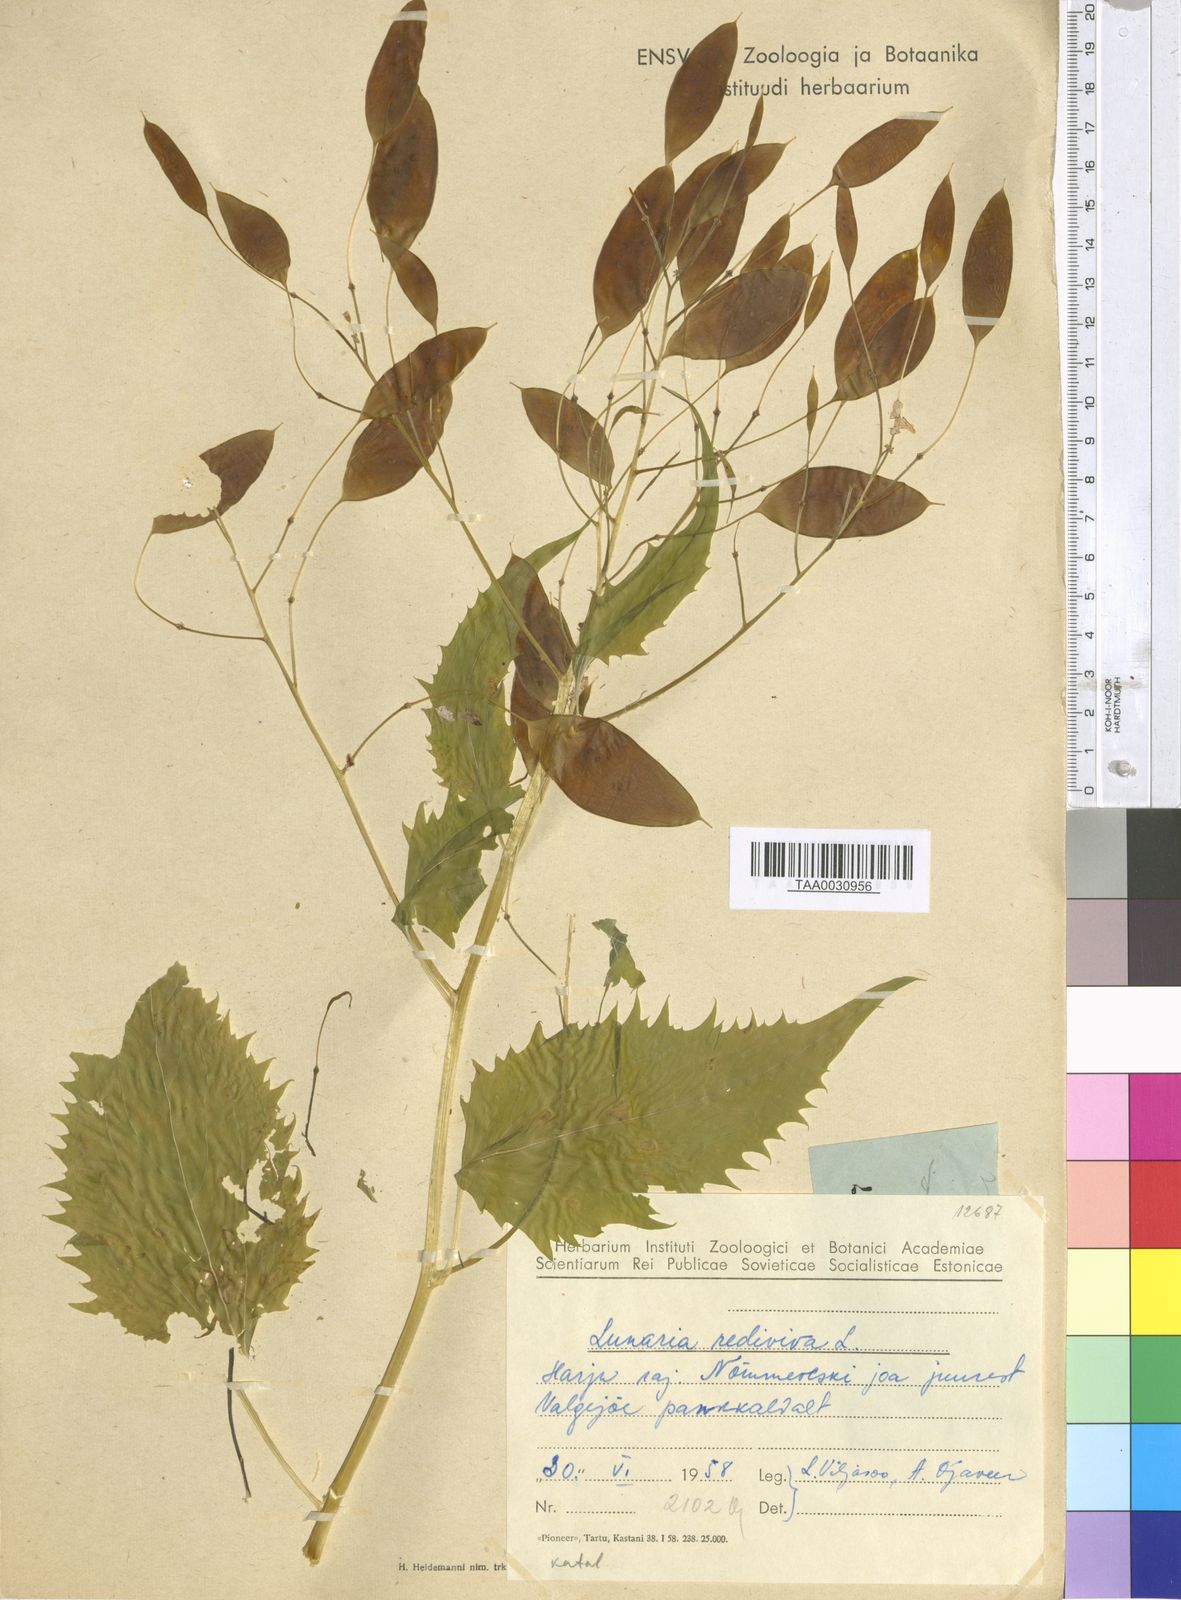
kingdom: Plantae
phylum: Tracheophyta
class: Magnoliopsida
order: Brassicales
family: Brassicaceae
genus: Lunaria
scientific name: Lunaria rediviva
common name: Perennial honesty
